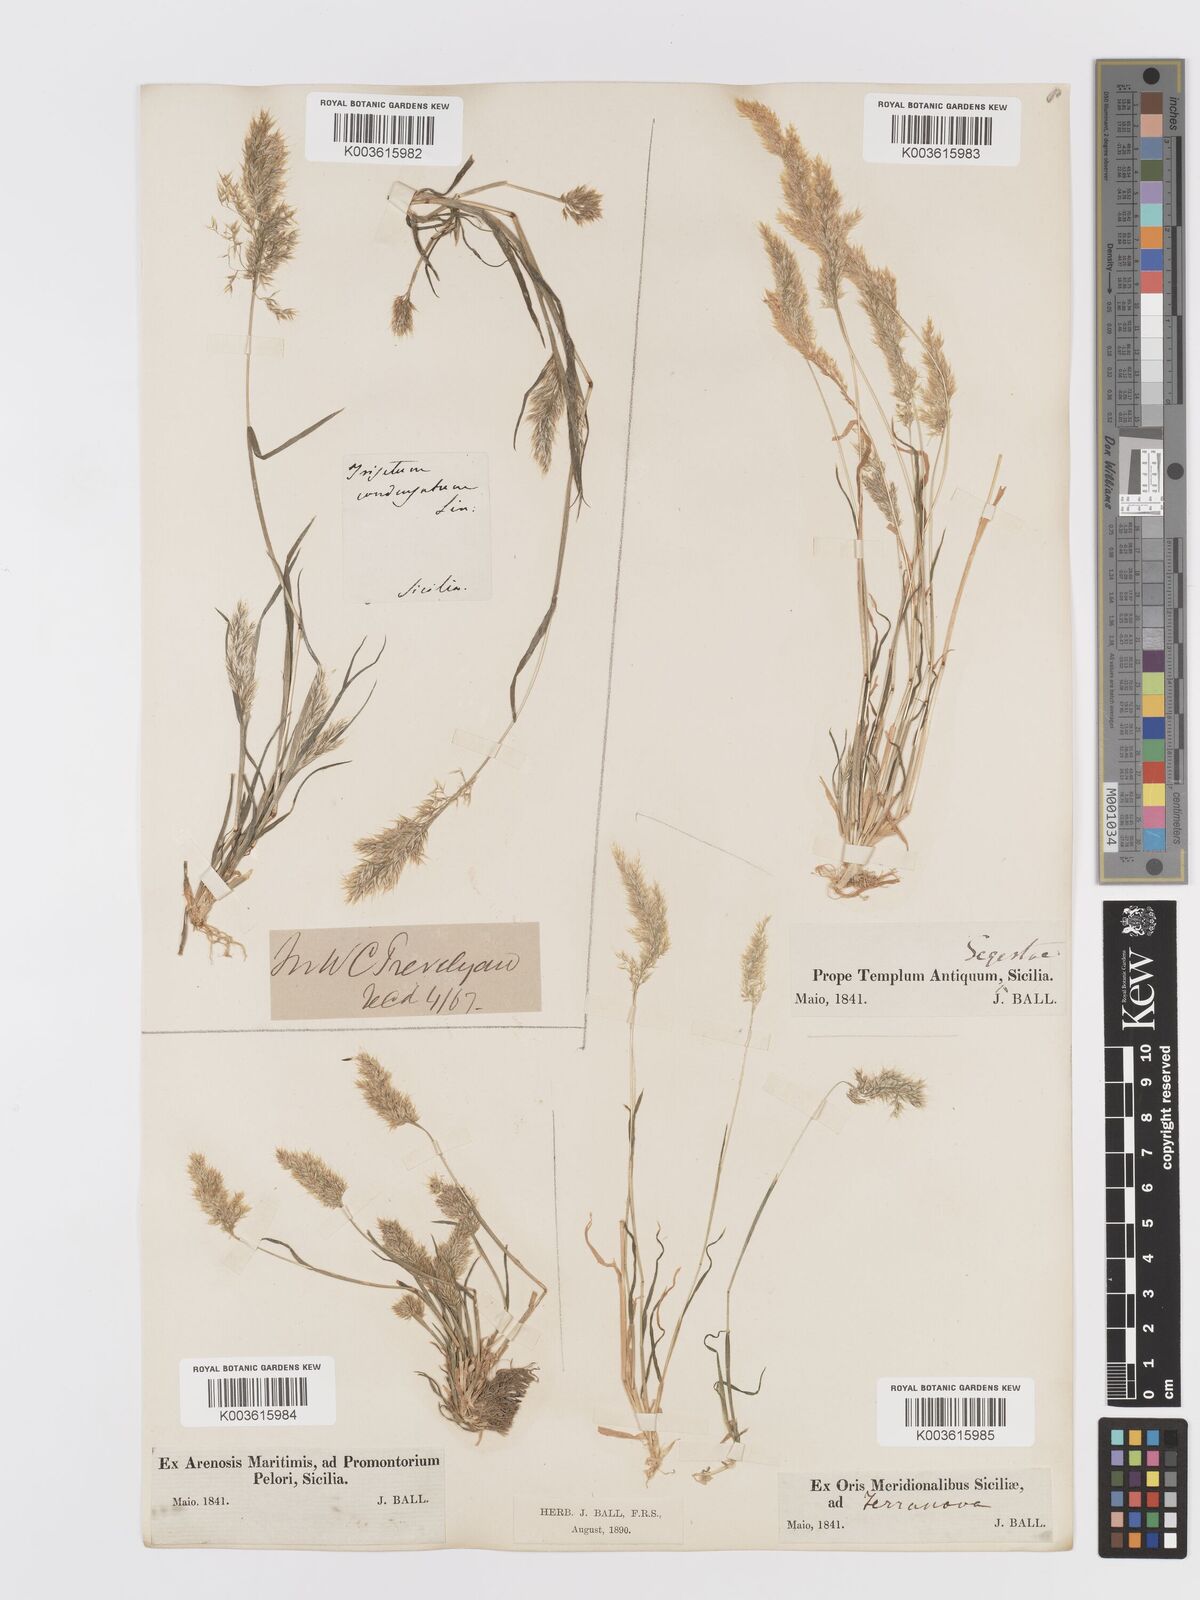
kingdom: Plantae
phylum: Tracheophyta
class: Liliopsida
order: Poales
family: Poaceae
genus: Trisetaria
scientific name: Trisetaria aurea
